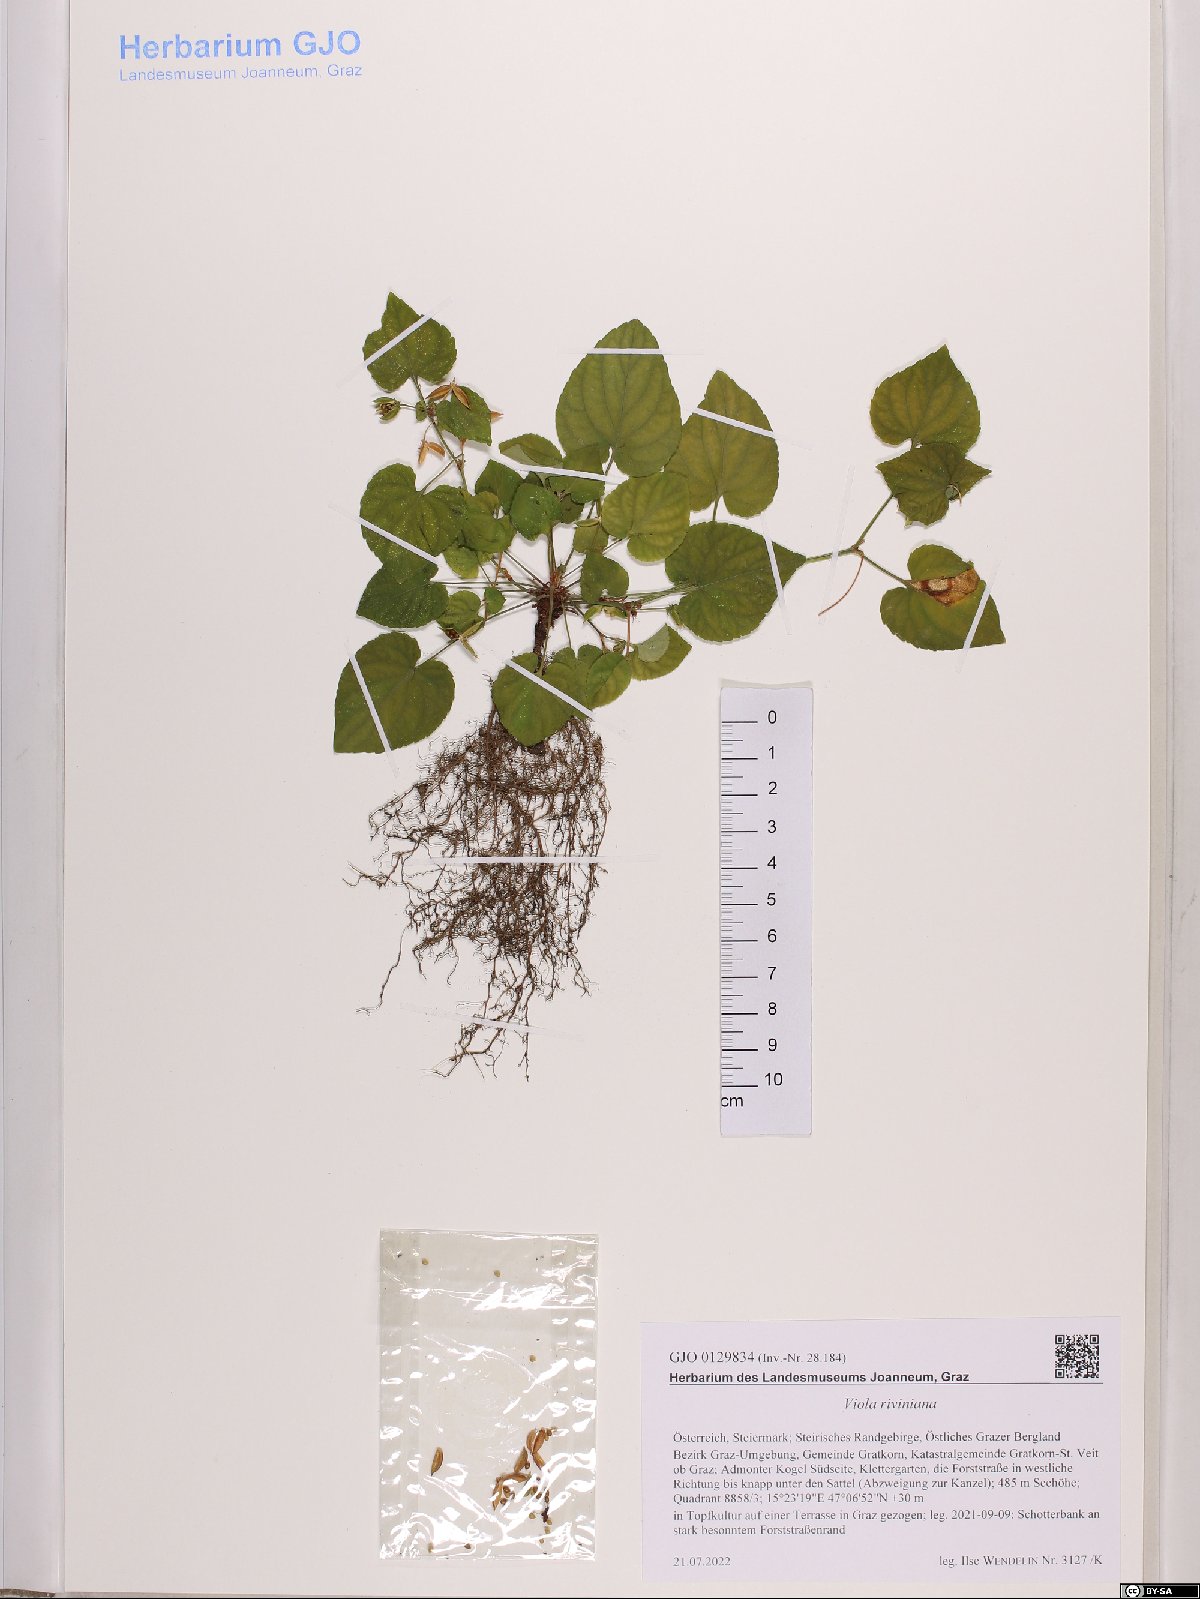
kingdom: Plantae
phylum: Tracheophyta
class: Magnoliopsida
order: Malpighiales
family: Violaceae
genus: Viola
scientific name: Viola riviniana
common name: Common dog-violet
